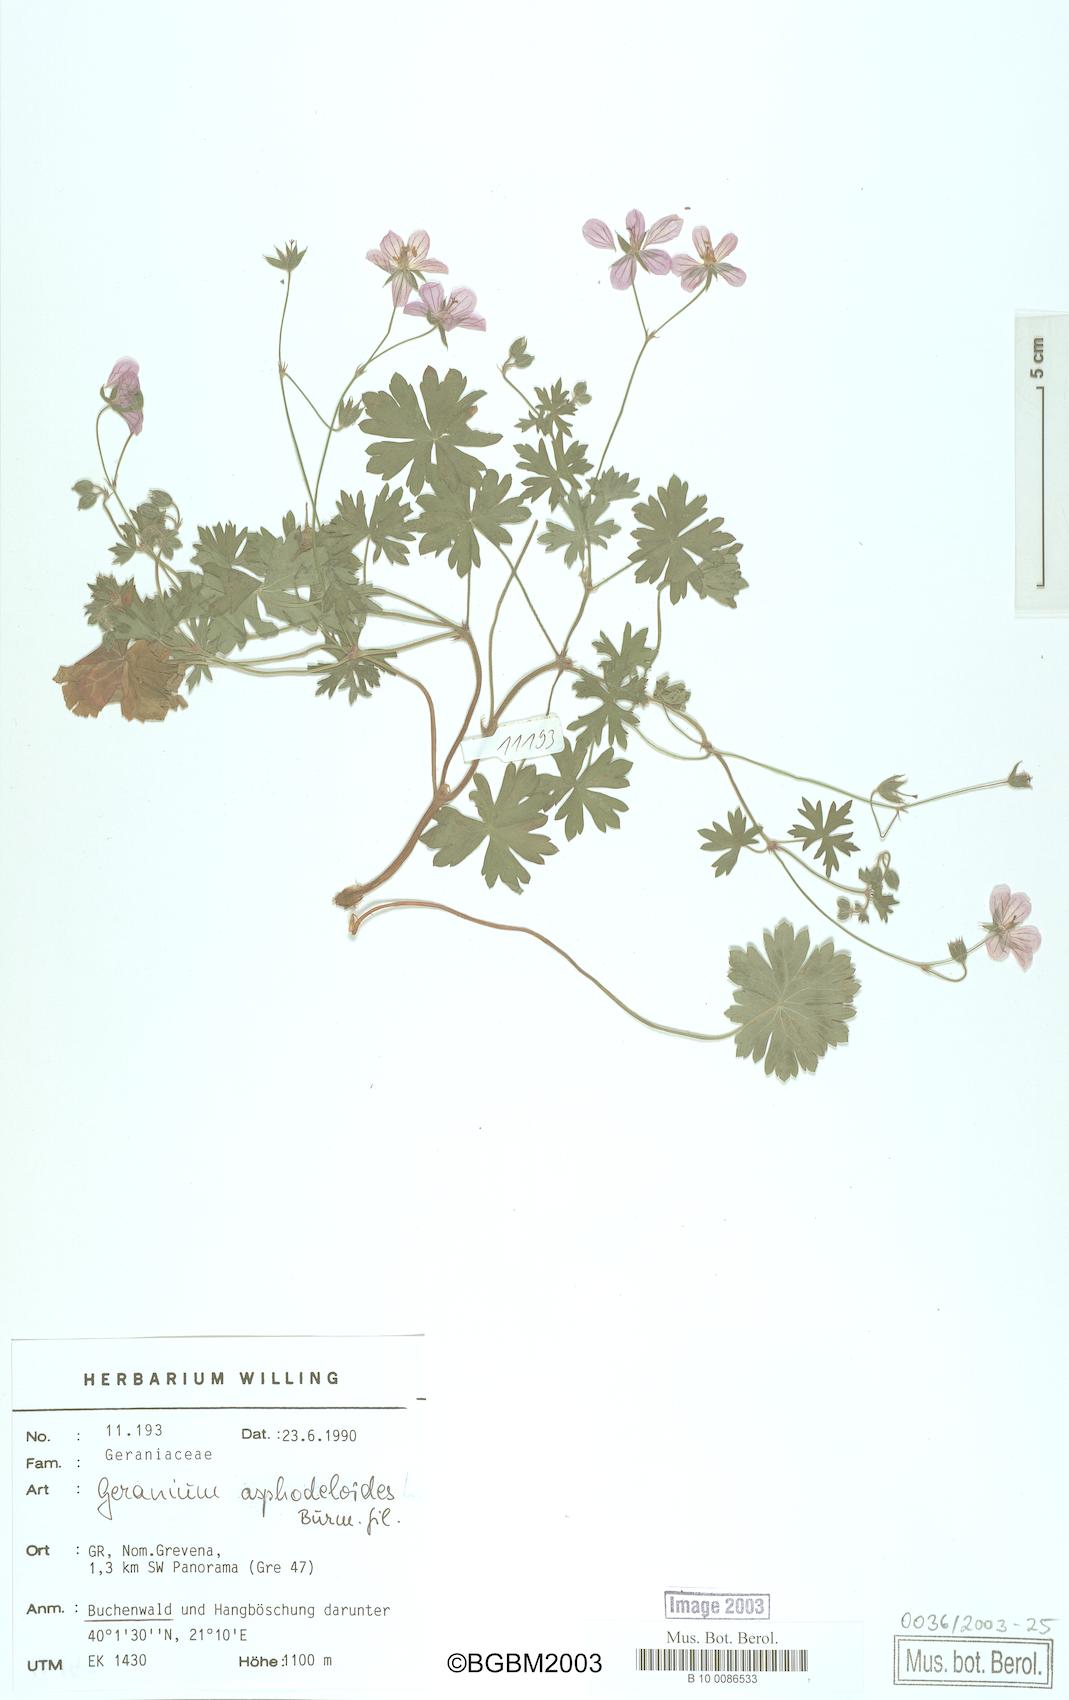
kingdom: Plantae
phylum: Tracheophyta
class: Magnoliopsida
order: Geraniales
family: Geraniaceae
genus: Geranium
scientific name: Geranium asphodeloides
